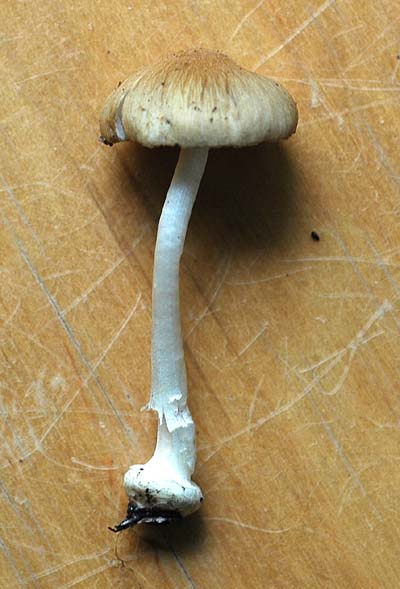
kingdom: Fungi
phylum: Basidiomycota
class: Agaricomycetes
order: Agaricales
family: Inocybaceae
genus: Inocybe
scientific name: Inocybe mixtilis
